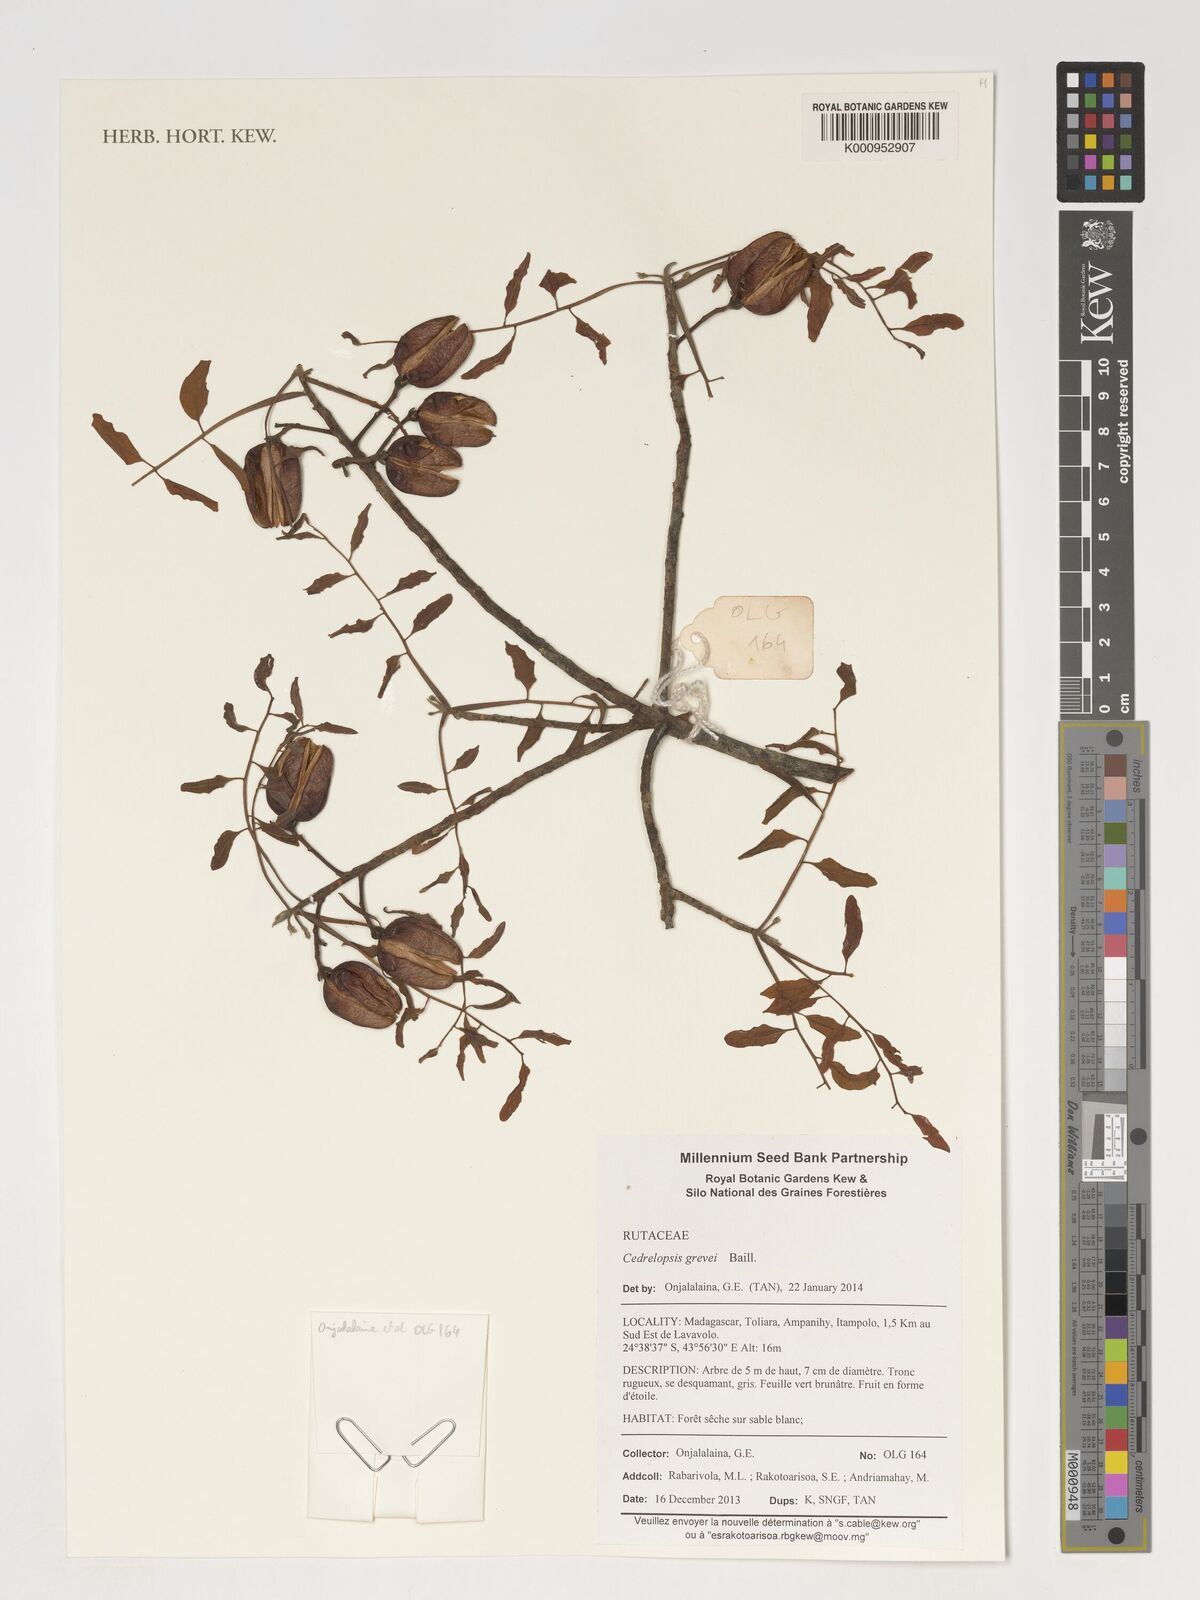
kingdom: Plantae
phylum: Tracheophyta
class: Magnoliopsida
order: Sapindales
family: Rutaceae
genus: Cedrelopsis
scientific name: Cedrelopsis grevei
